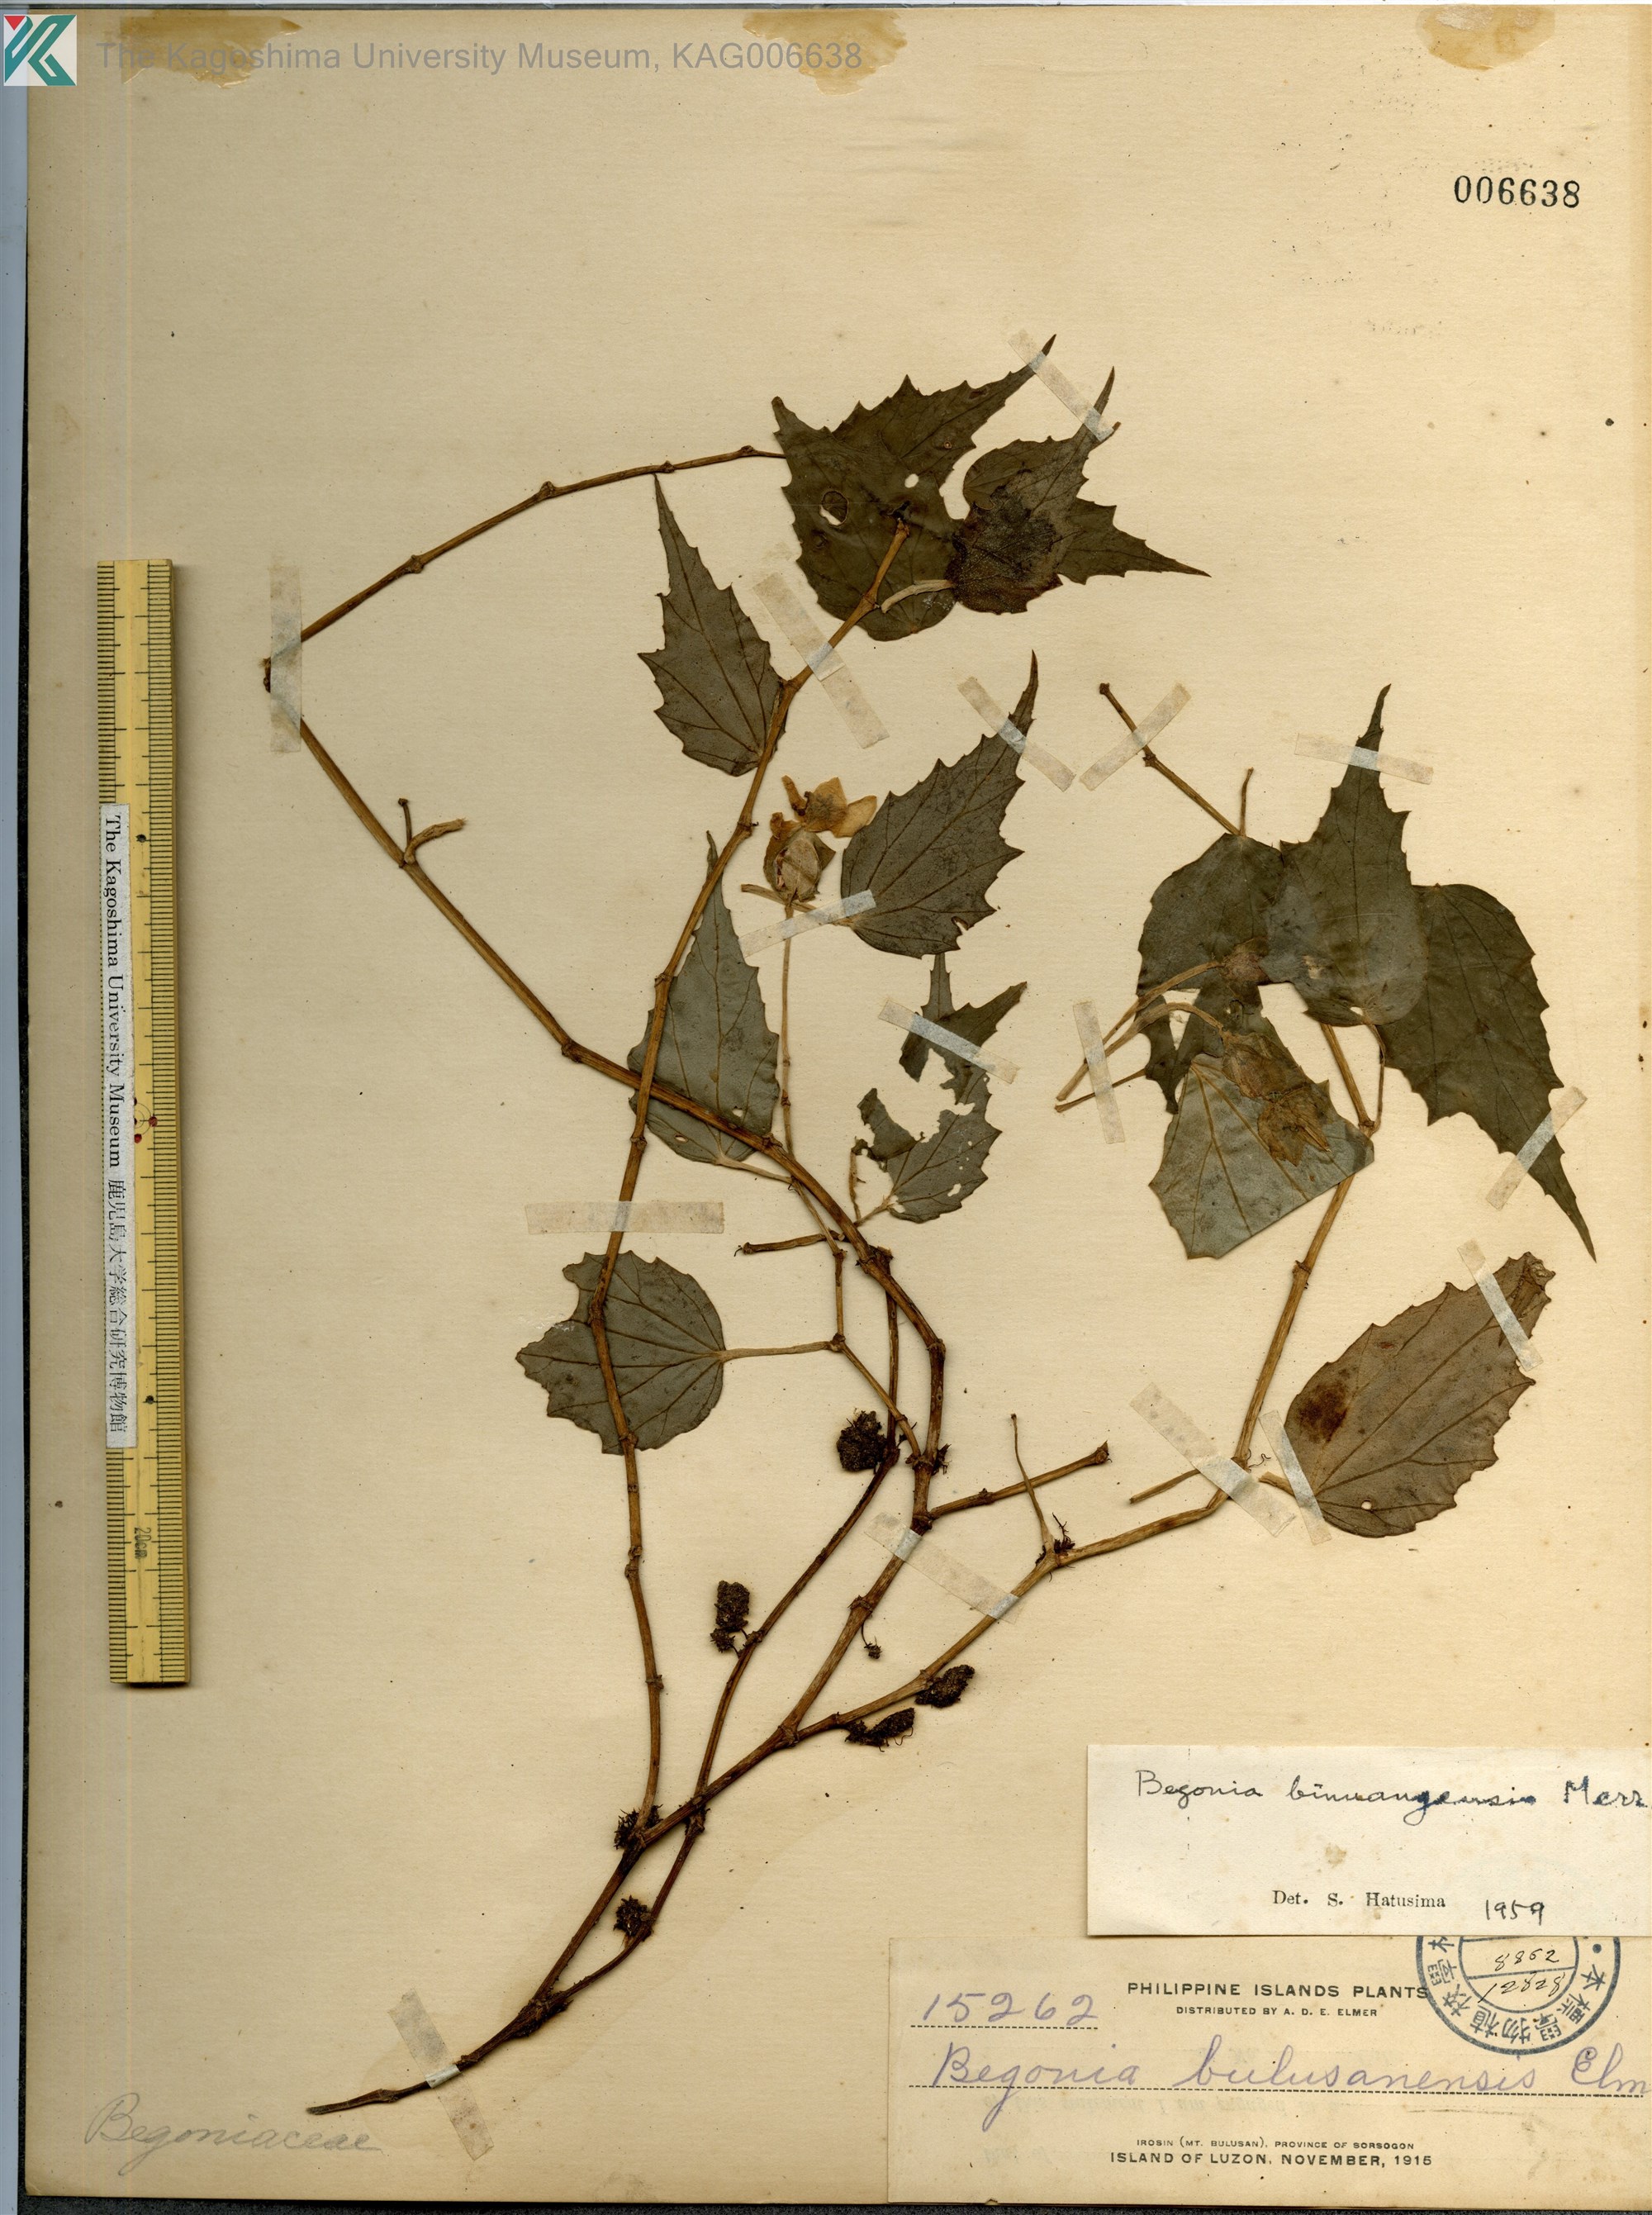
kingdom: Plantae
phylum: Tracheophyta
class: Magnoliopsida
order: Cucurbitales
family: Begoniaceae
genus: Begonia
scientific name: Begonia binuangensis
